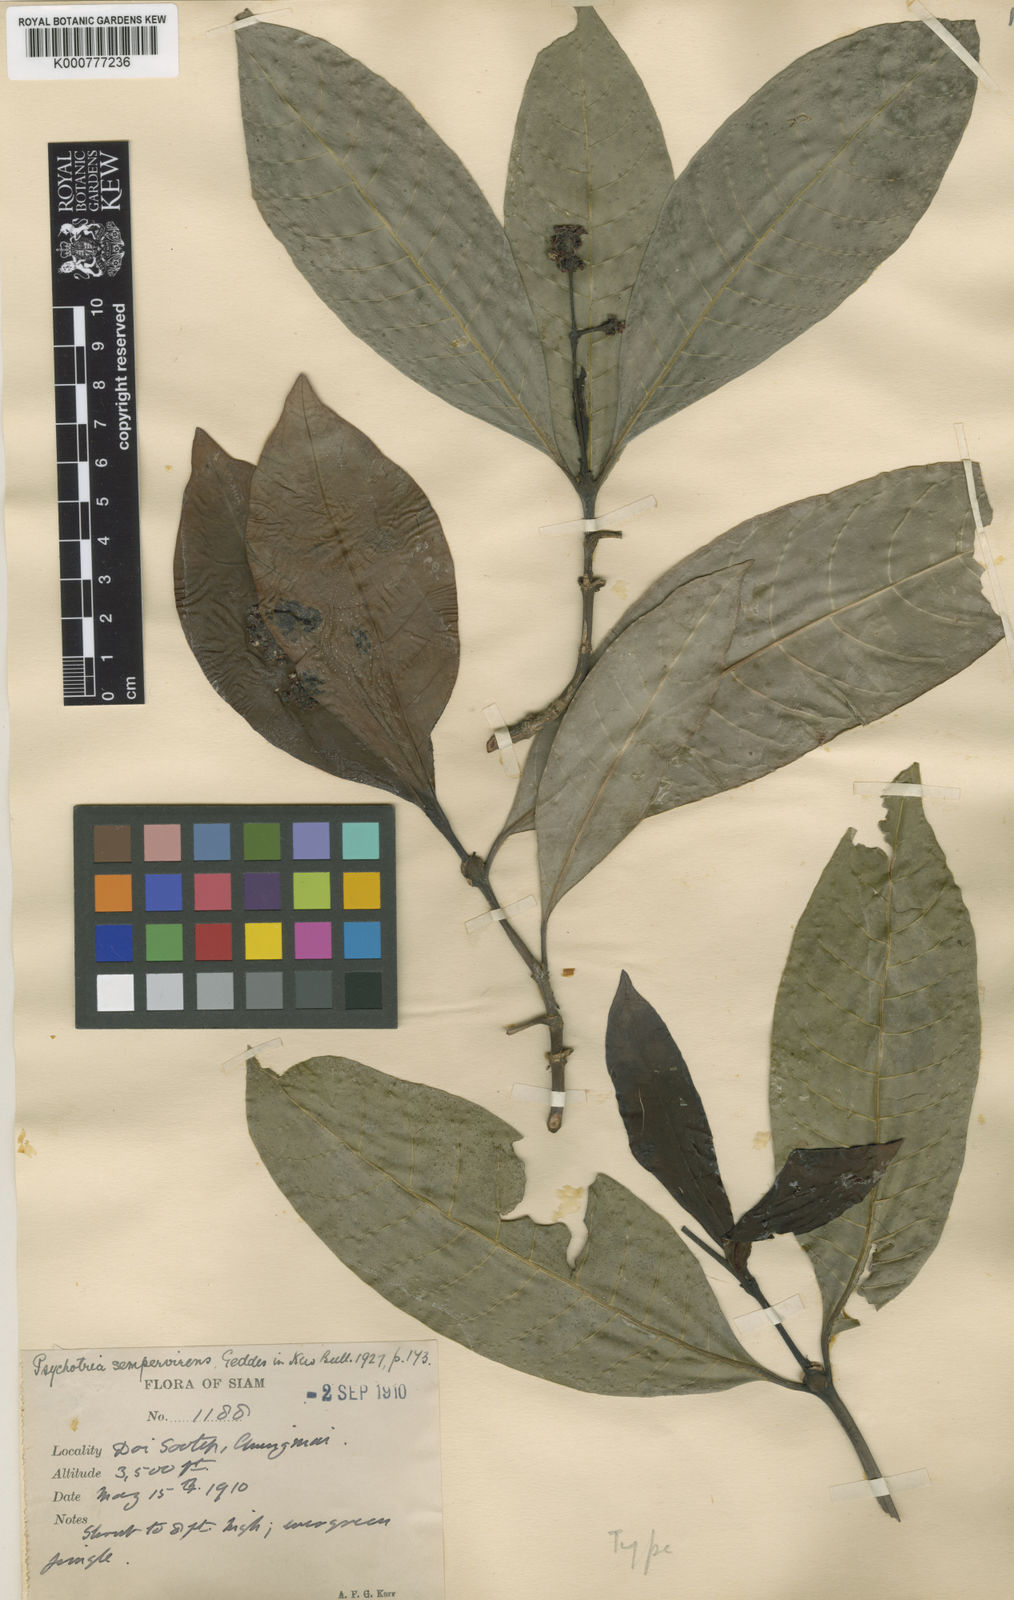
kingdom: Plantae
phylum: Tracheophyta
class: Magnoliopsida
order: Gentianales
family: Rubiaceae
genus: Psychotria
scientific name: Psychotria symplocifolia
